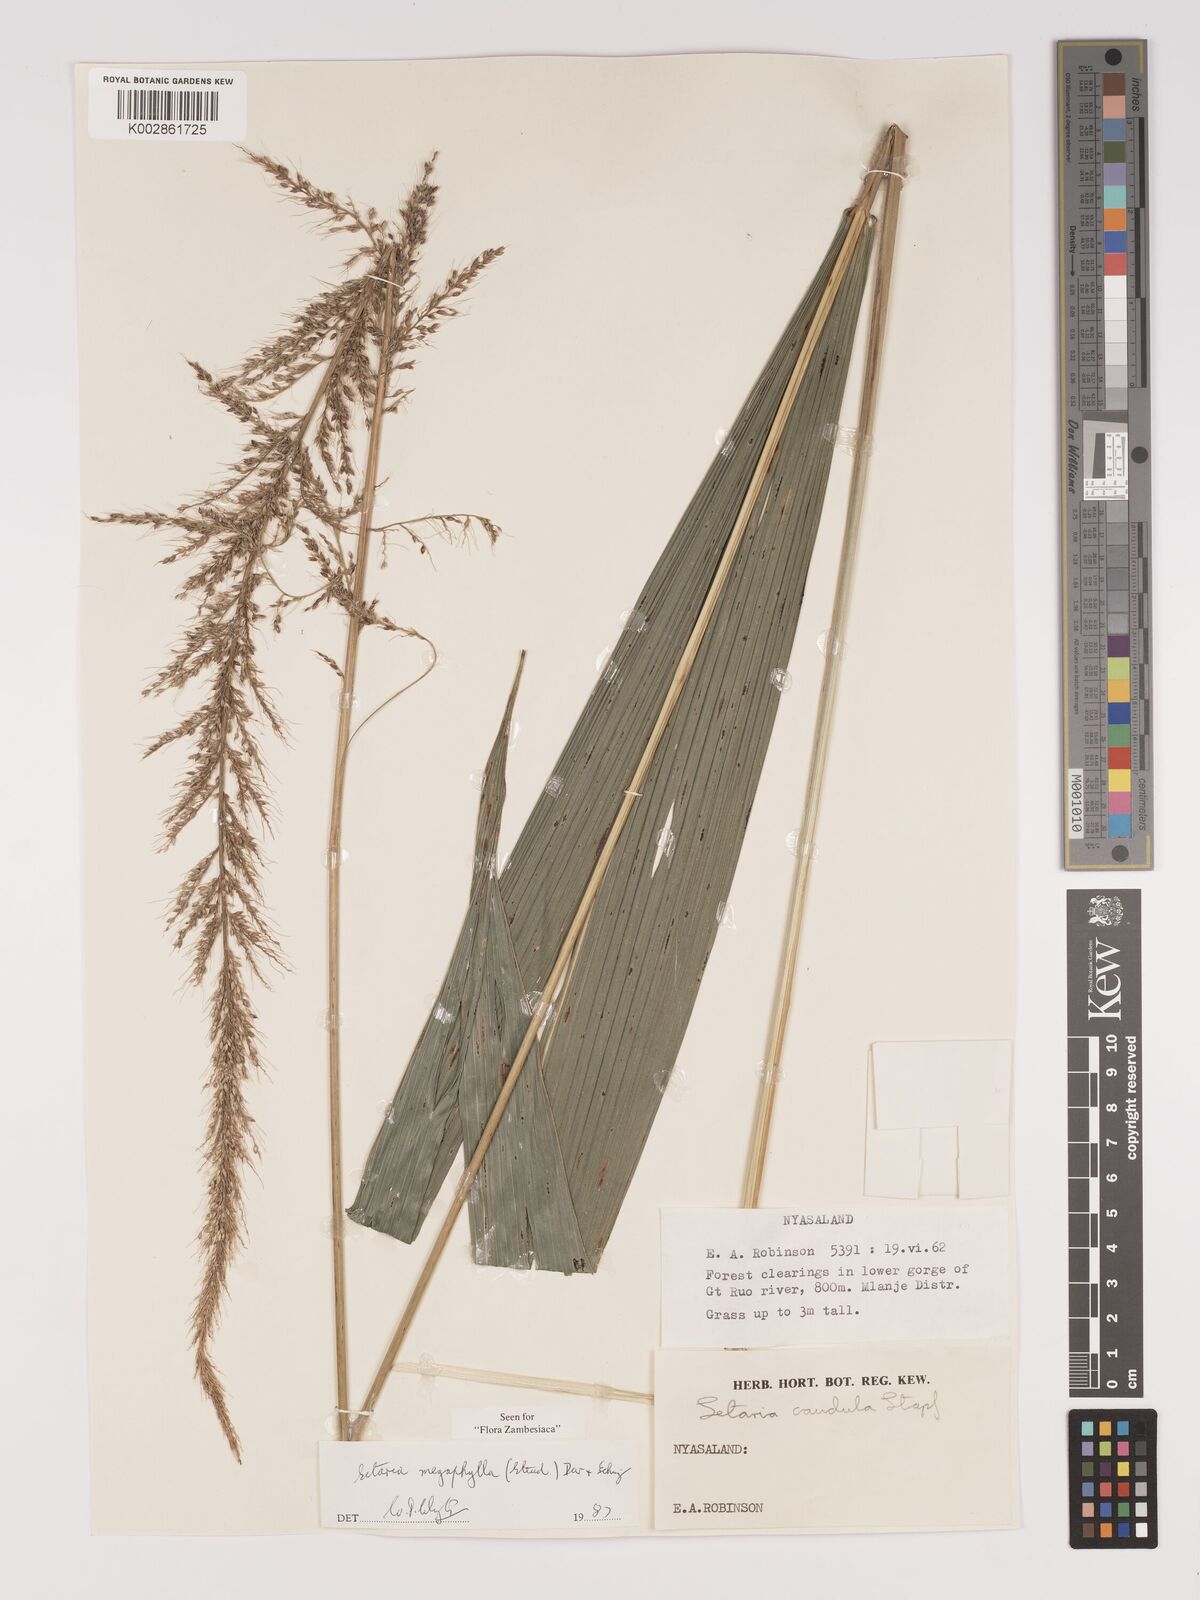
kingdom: Plantae
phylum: Tracheophyta
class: Liliopsida
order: Poales
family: Poaceae
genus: Setaria
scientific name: Setaria megaphylla
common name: Bigleaf bristlegrass
